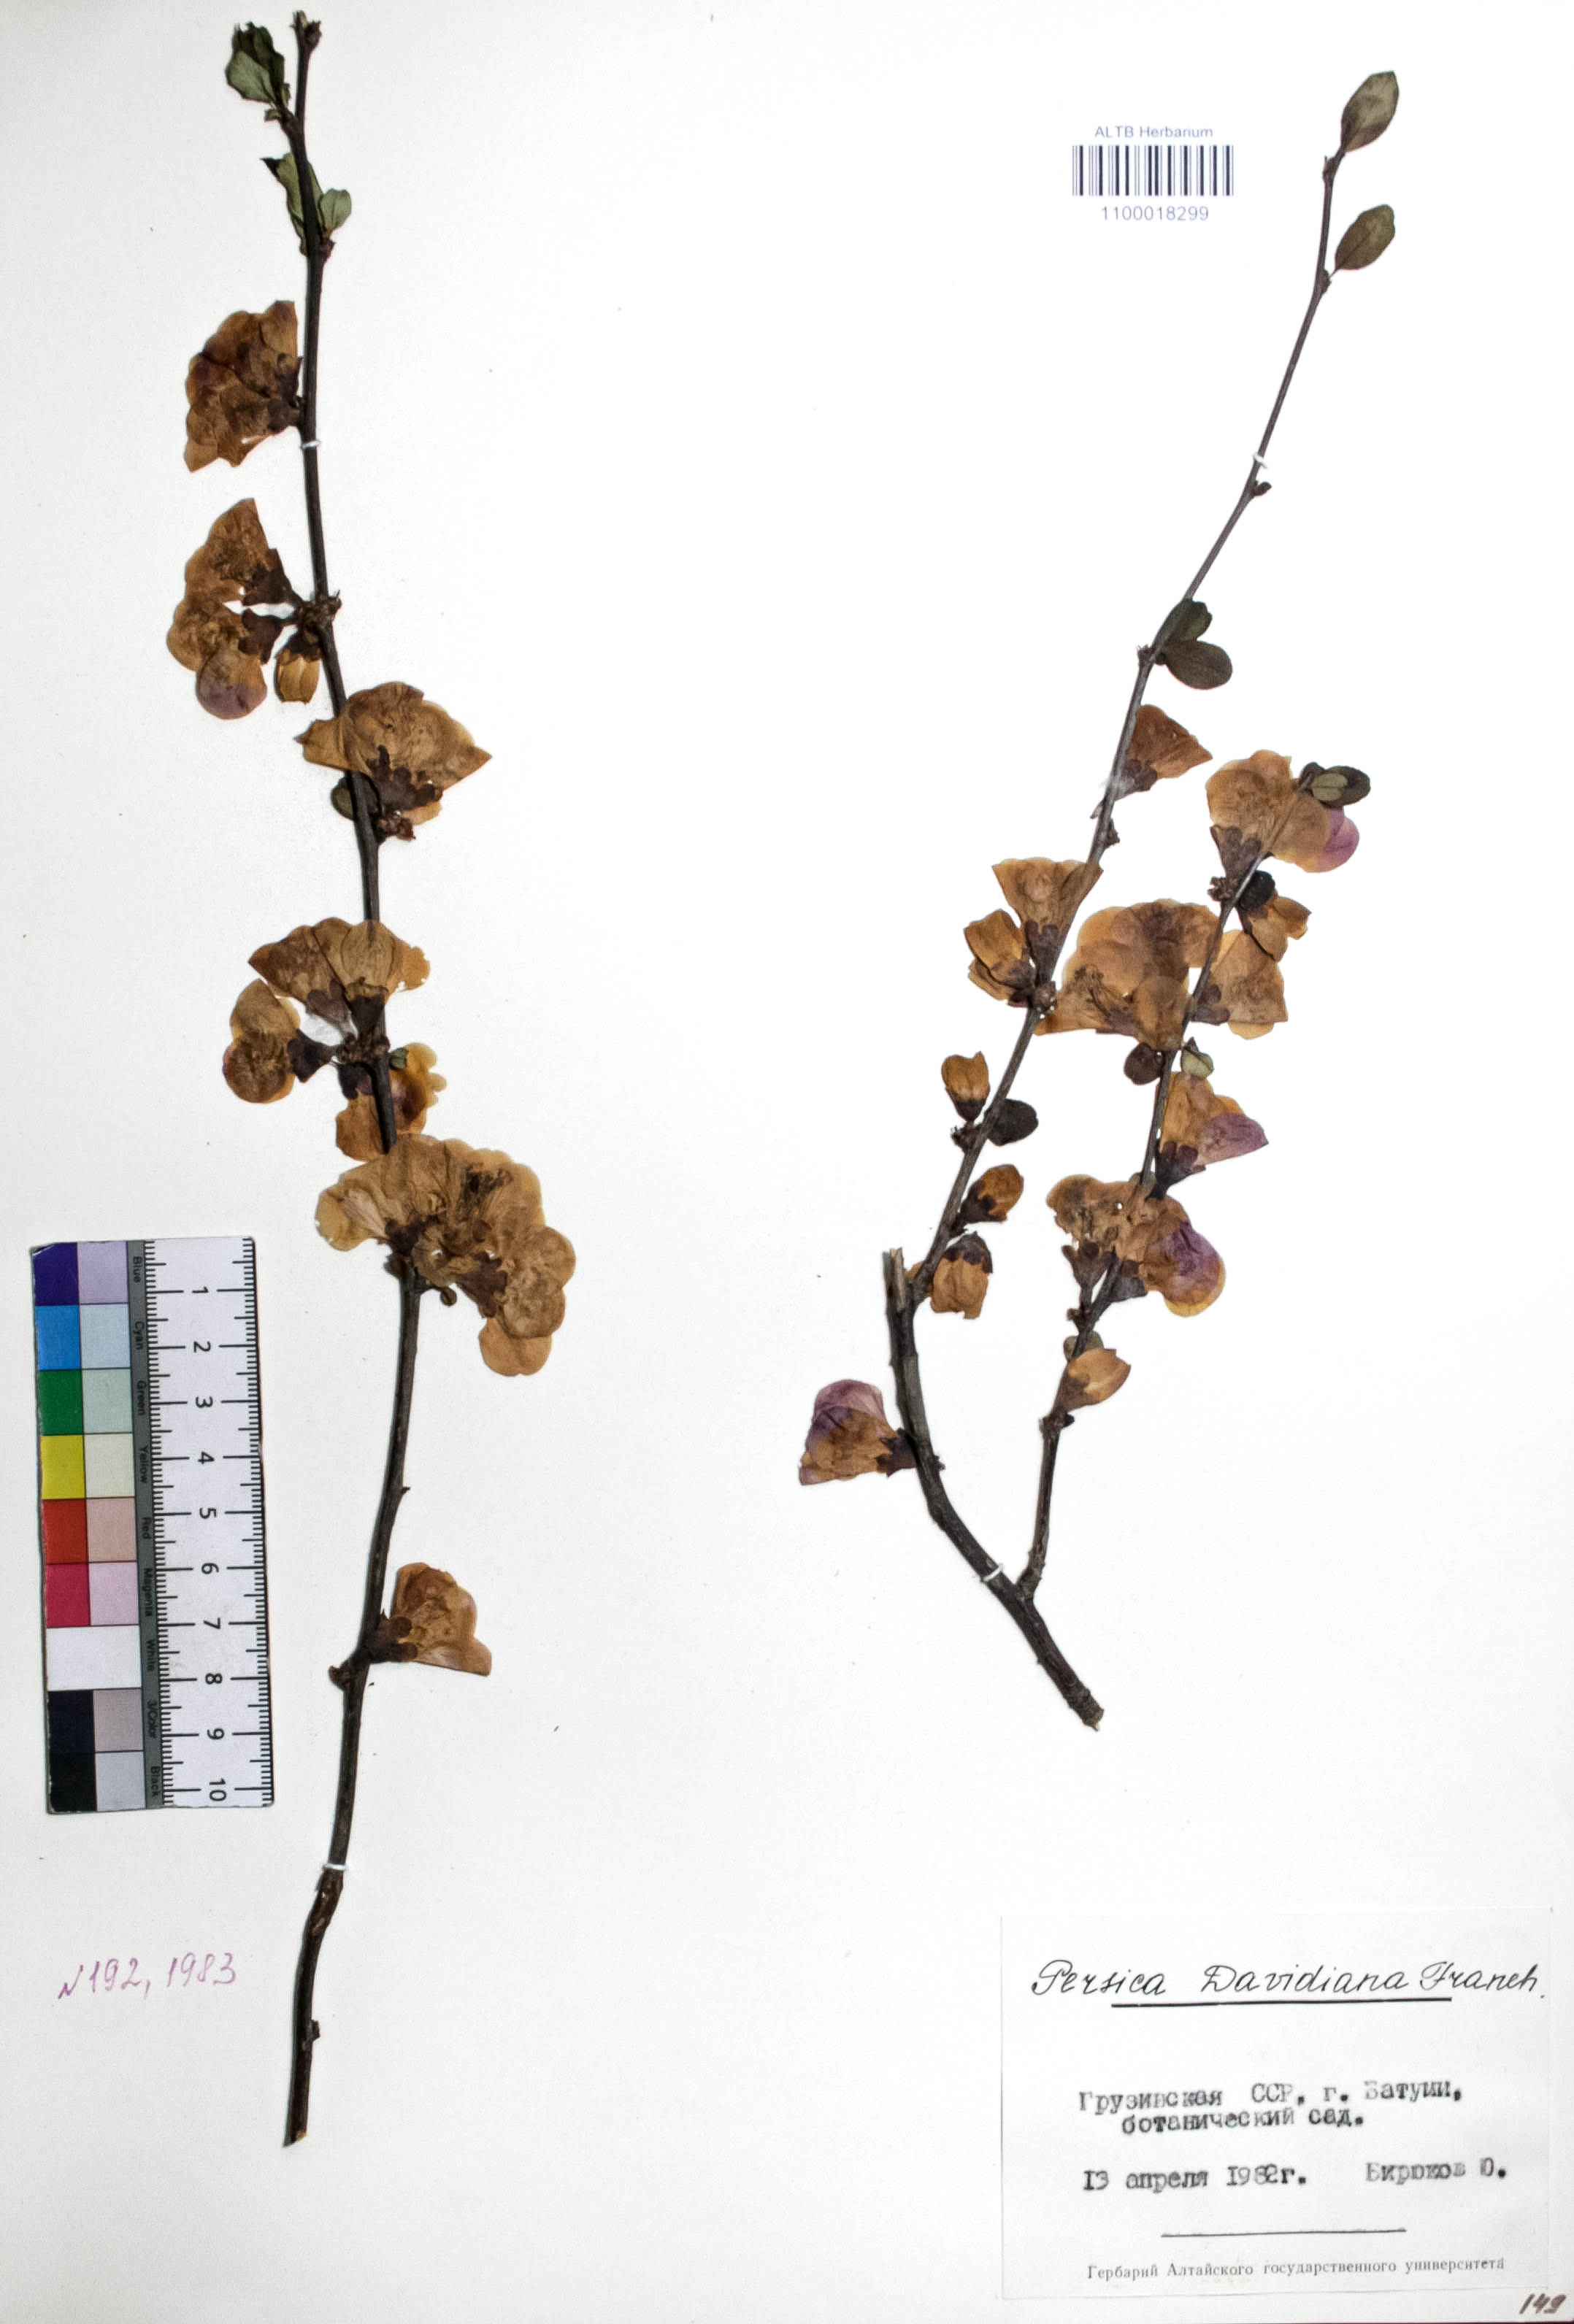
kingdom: Plantae
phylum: Tracheophyta
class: Magnoliopsida
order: Rosales
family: Rosaceae
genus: Prunus
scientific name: Prunus davidiana
